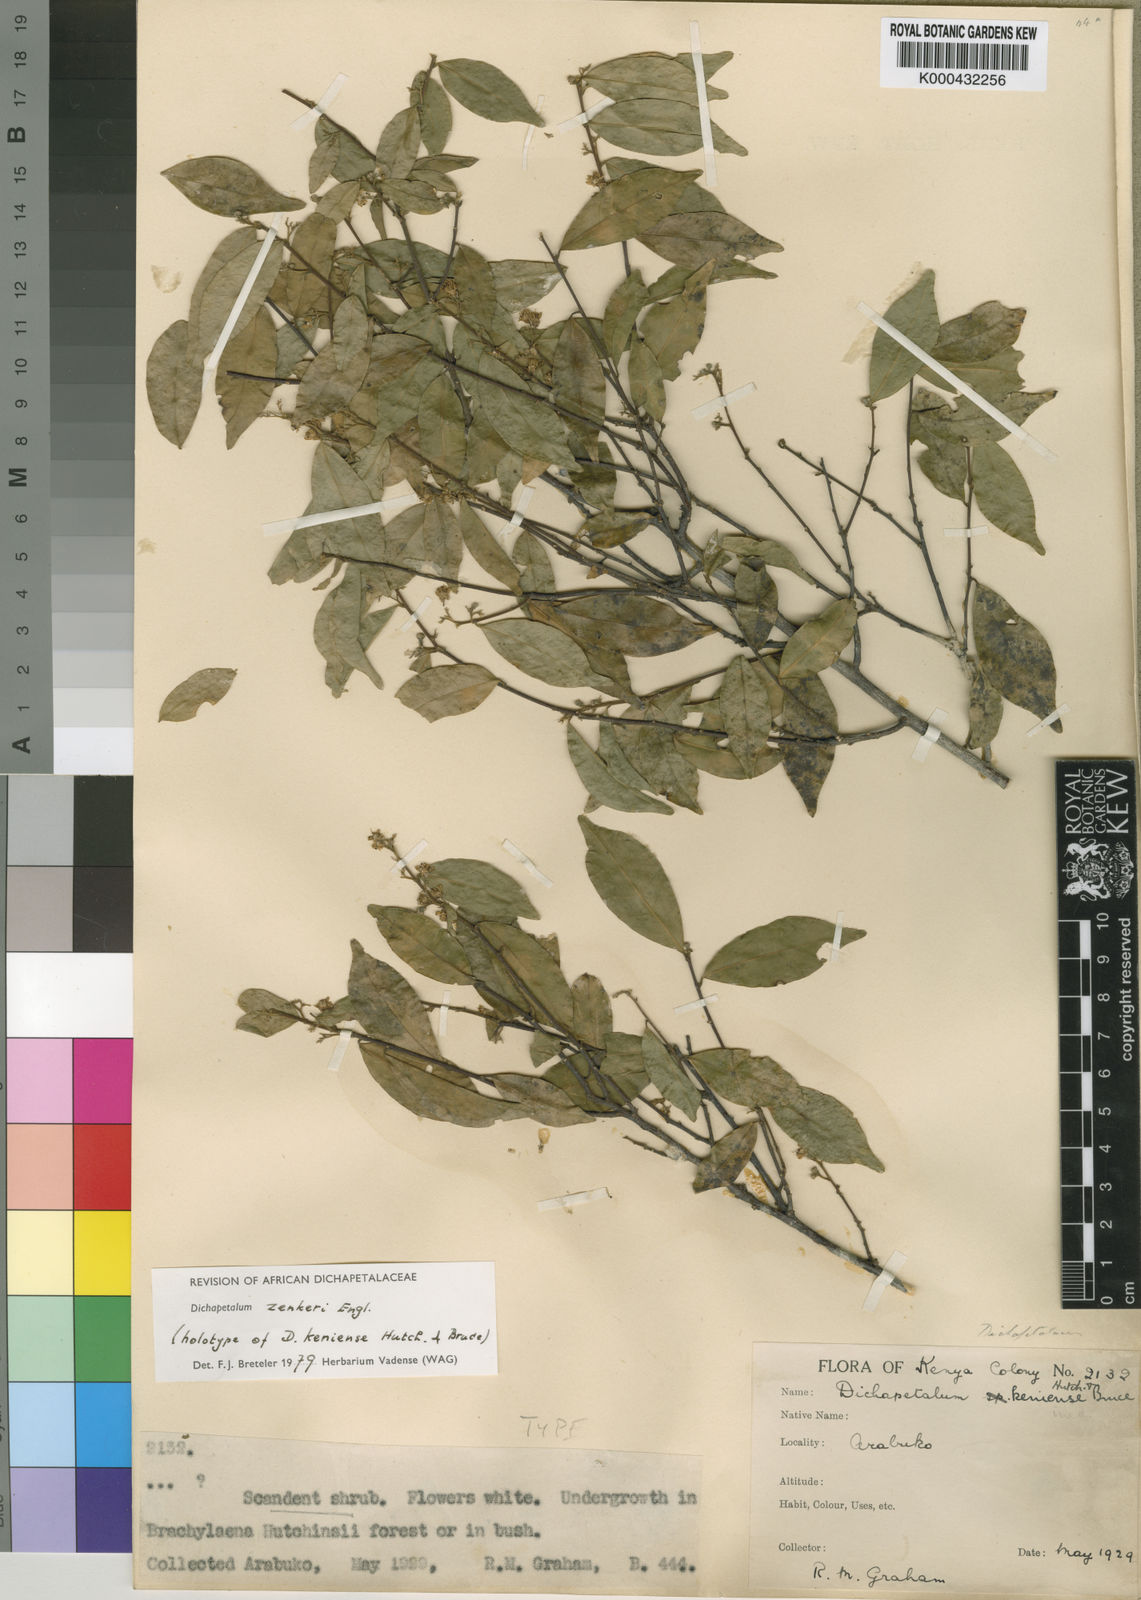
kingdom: Plantae
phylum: Tracheophyta
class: Magnoliopsida
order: Malpighiales
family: Dichapetalaceae
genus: Dichapetalum
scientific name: Dichapetalum zenkeri
